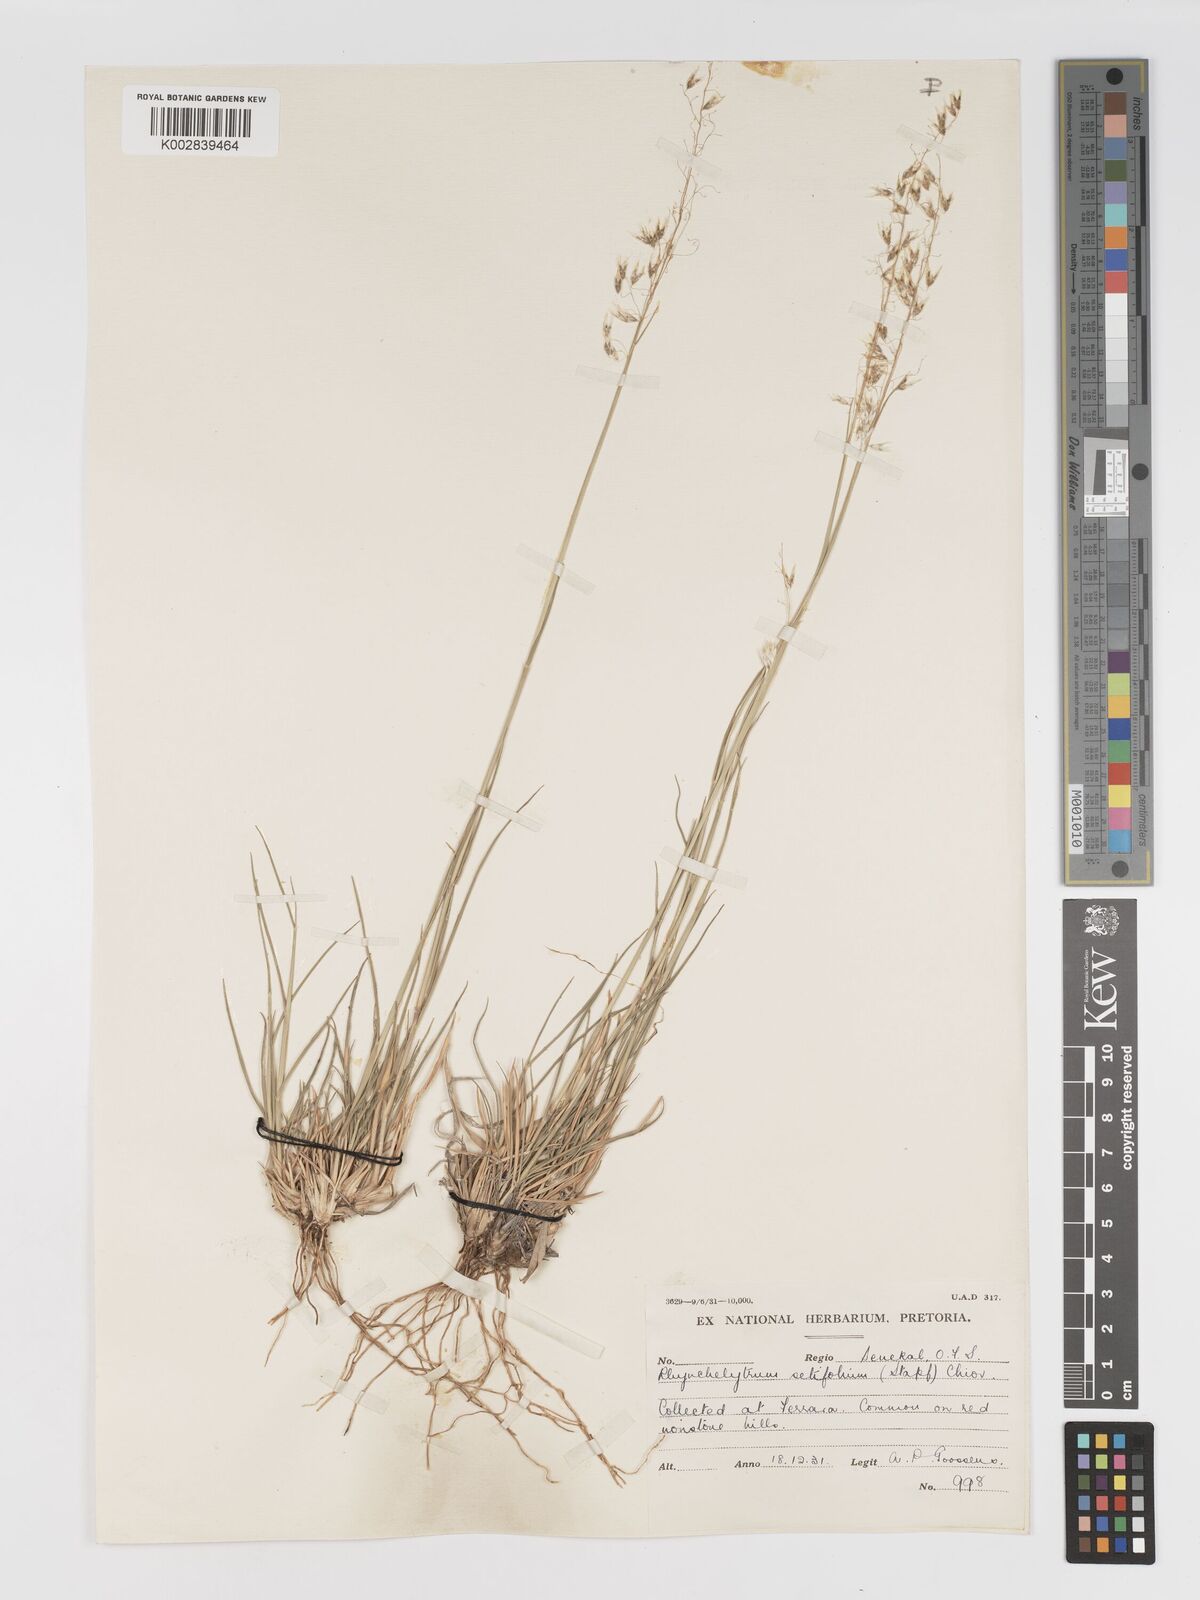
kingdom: Plantae
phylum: Tracheophyta
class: Liliopsida
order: Poales
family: Poaceae
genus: Melinis
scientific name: Melinis nerviglumis
